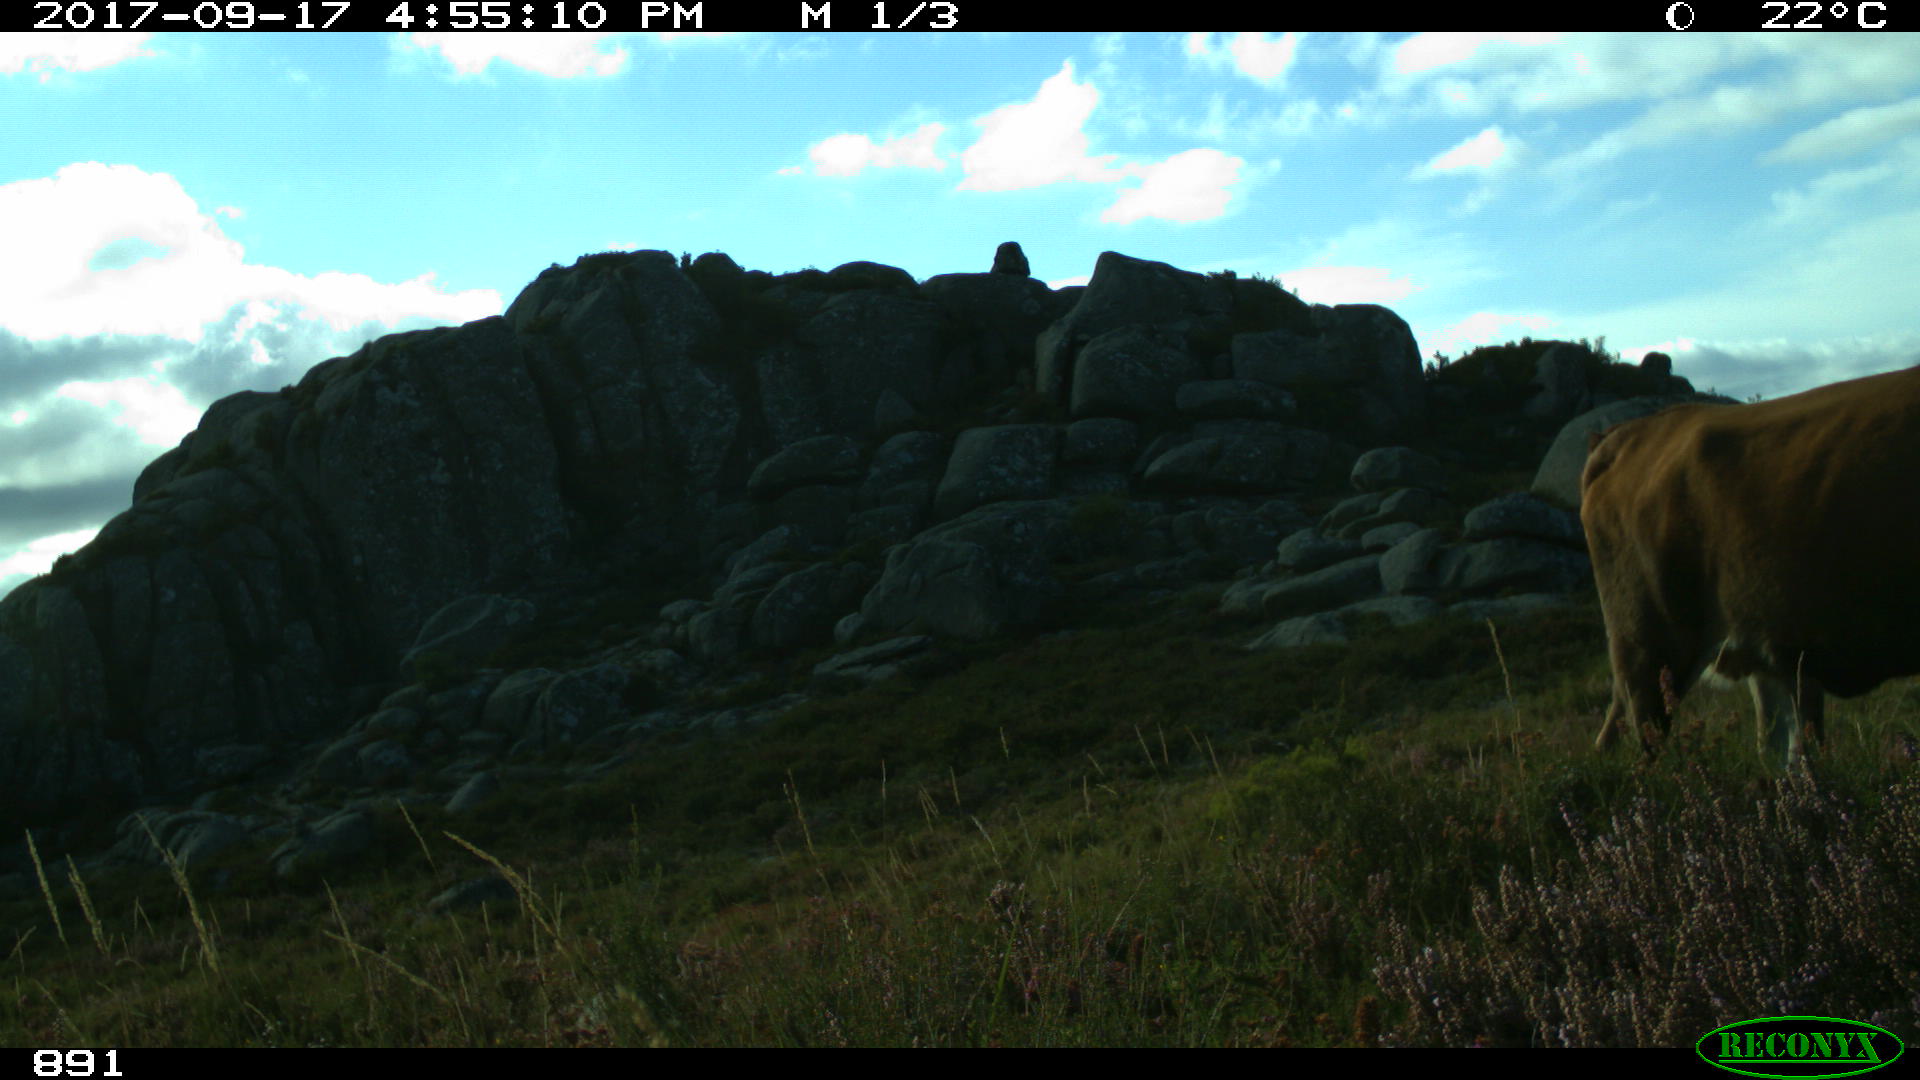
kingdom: Animalia
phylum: Chordata
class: Mammalia
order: Artiodactyla
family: Bovidae
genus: Bos
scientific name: Bos taurus
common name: Domesticated cattle
